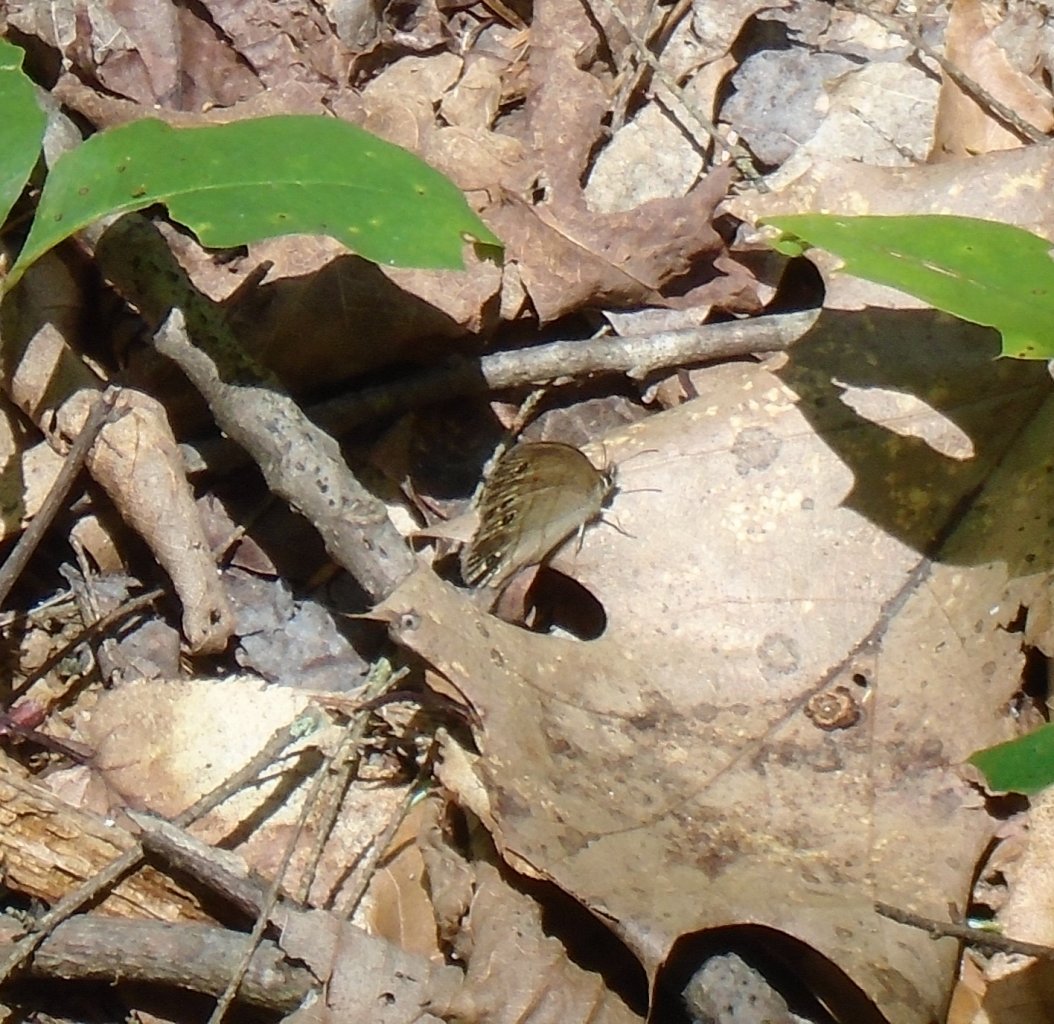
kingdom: Animalia
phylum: Arthropoda
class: Insecta
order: Lepidoptera
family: Nymphalidae
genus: Euptychia
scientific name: Euptychia cymela
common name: Little Wood Satyr
